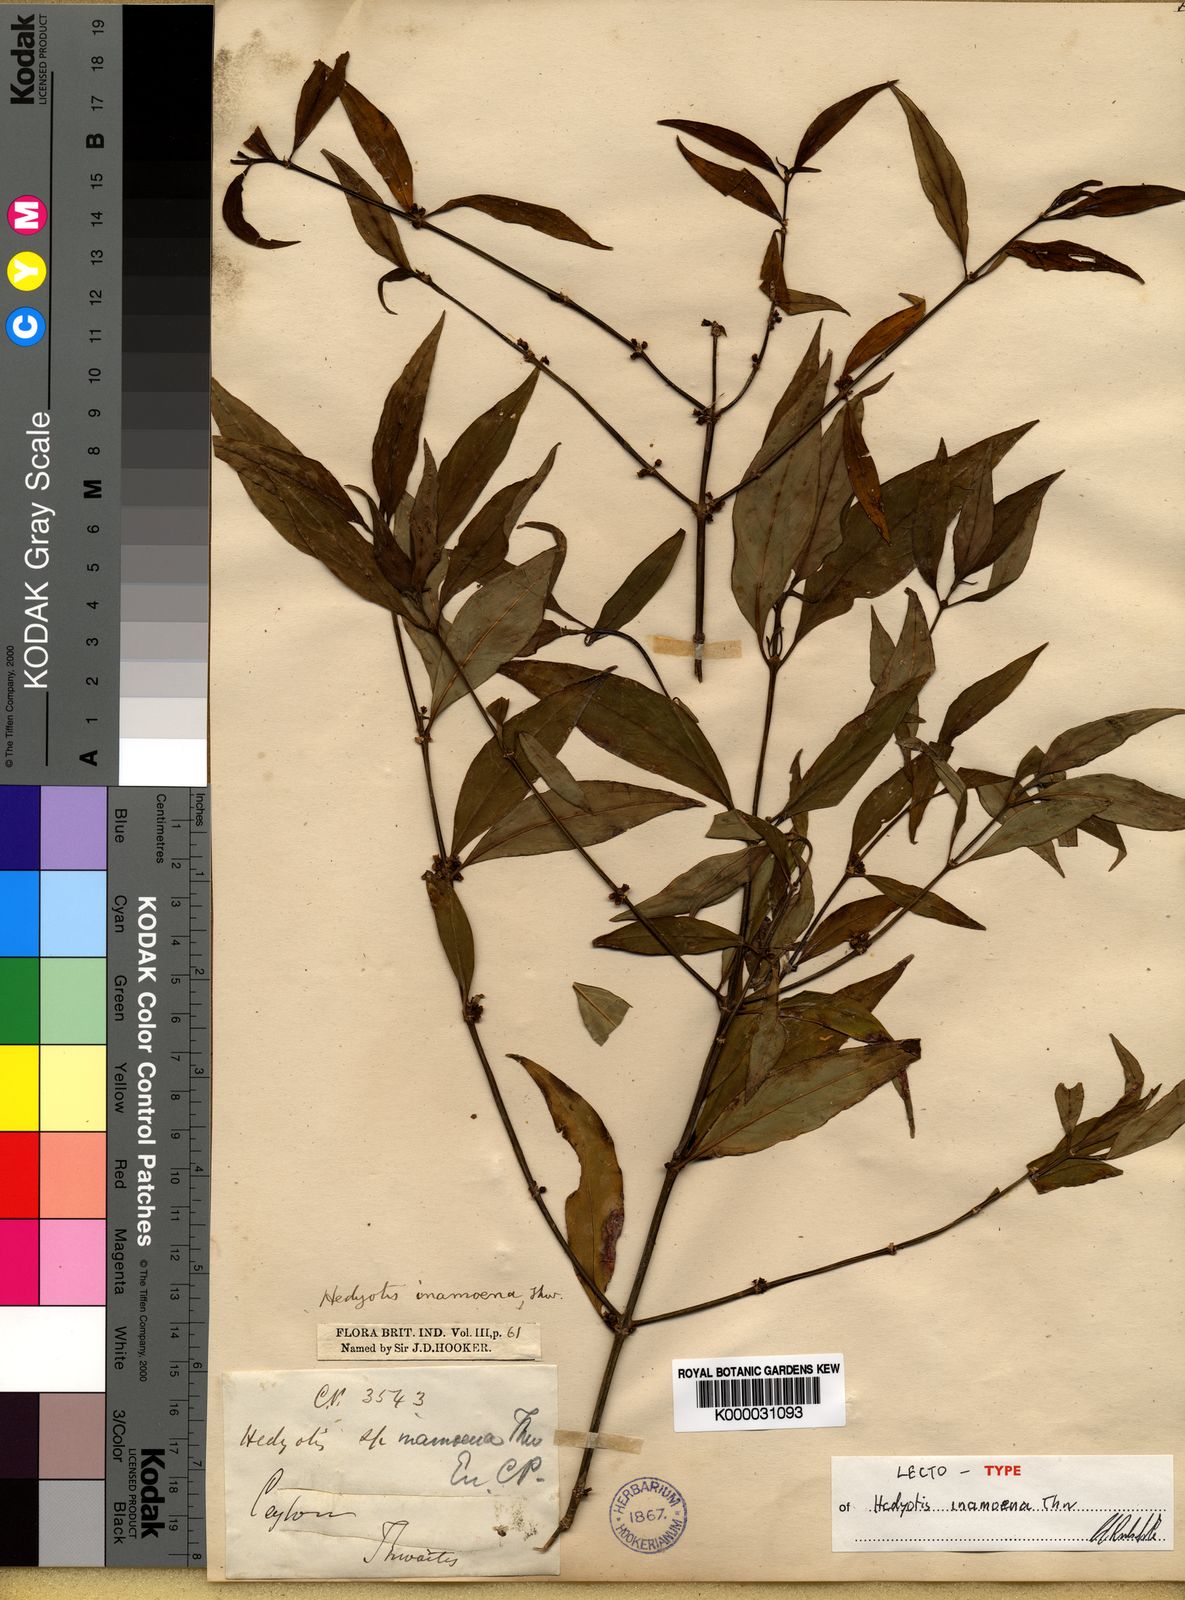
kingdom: Plantae
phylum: Tracheophyta
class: Magnoliopsida
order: Gentianales
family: Rubiaceae
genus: Hedyotis
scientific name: Hedyotis inamoena
